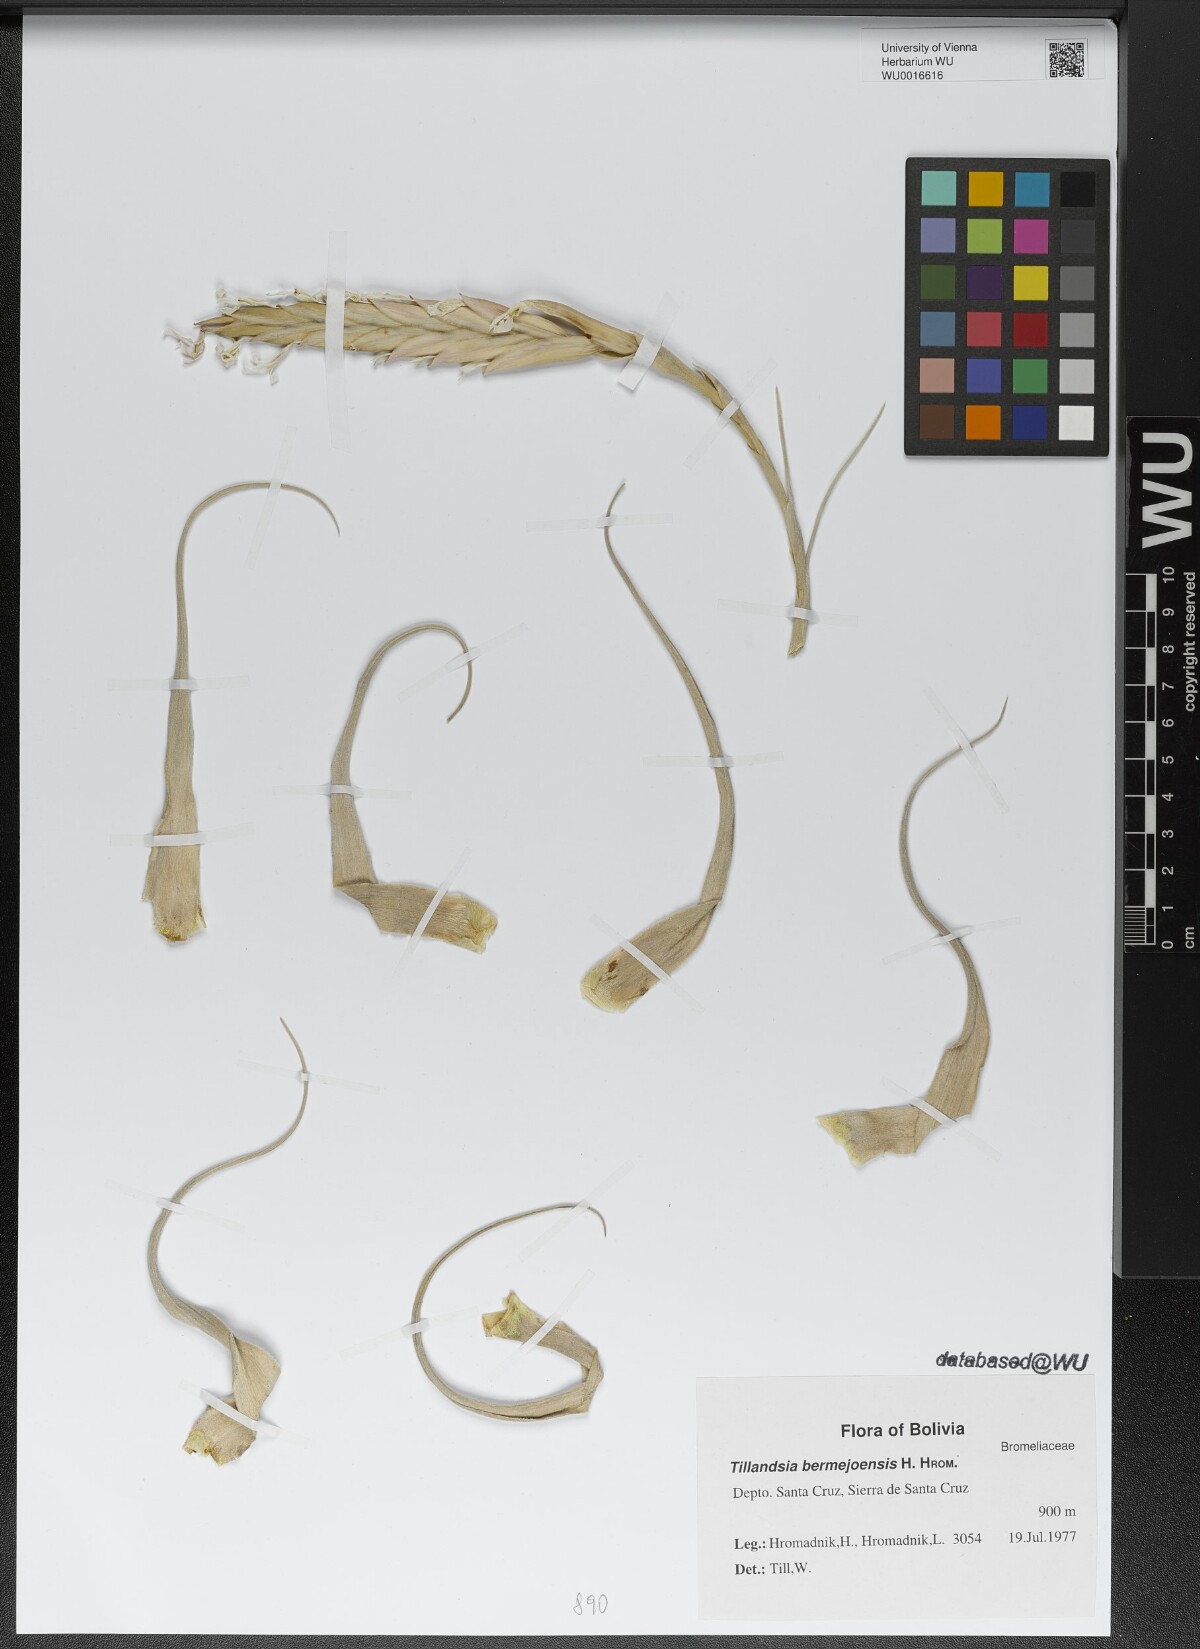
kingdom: Plantae
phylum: Tracheophyta
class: Liliopsida
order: Poales
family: Bromeliaceae
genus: Tillandsia
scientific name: Tillandsia bermejoensis
